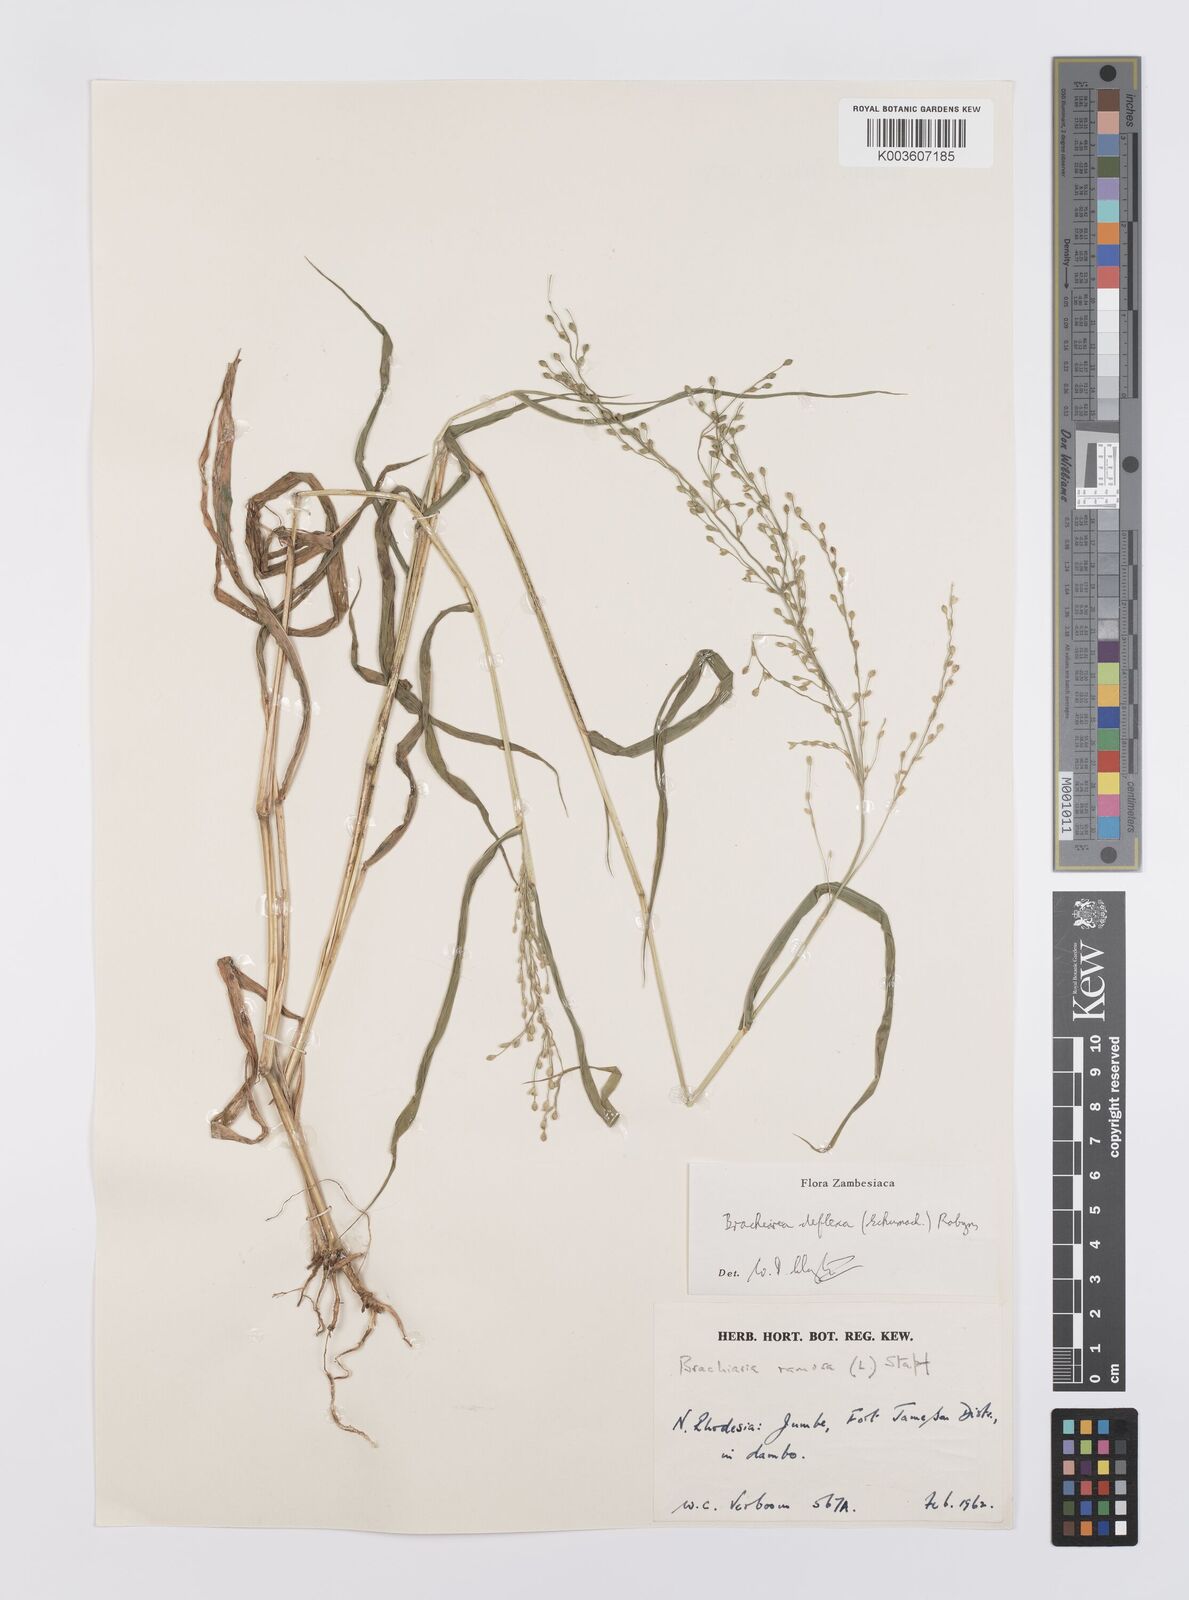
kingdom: Plantae
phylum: Tracheophyta
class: Liliopsida
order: Poales
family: Poaceae
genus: Urochloa
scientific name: Urochloa deflexa
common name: Guinea millet
